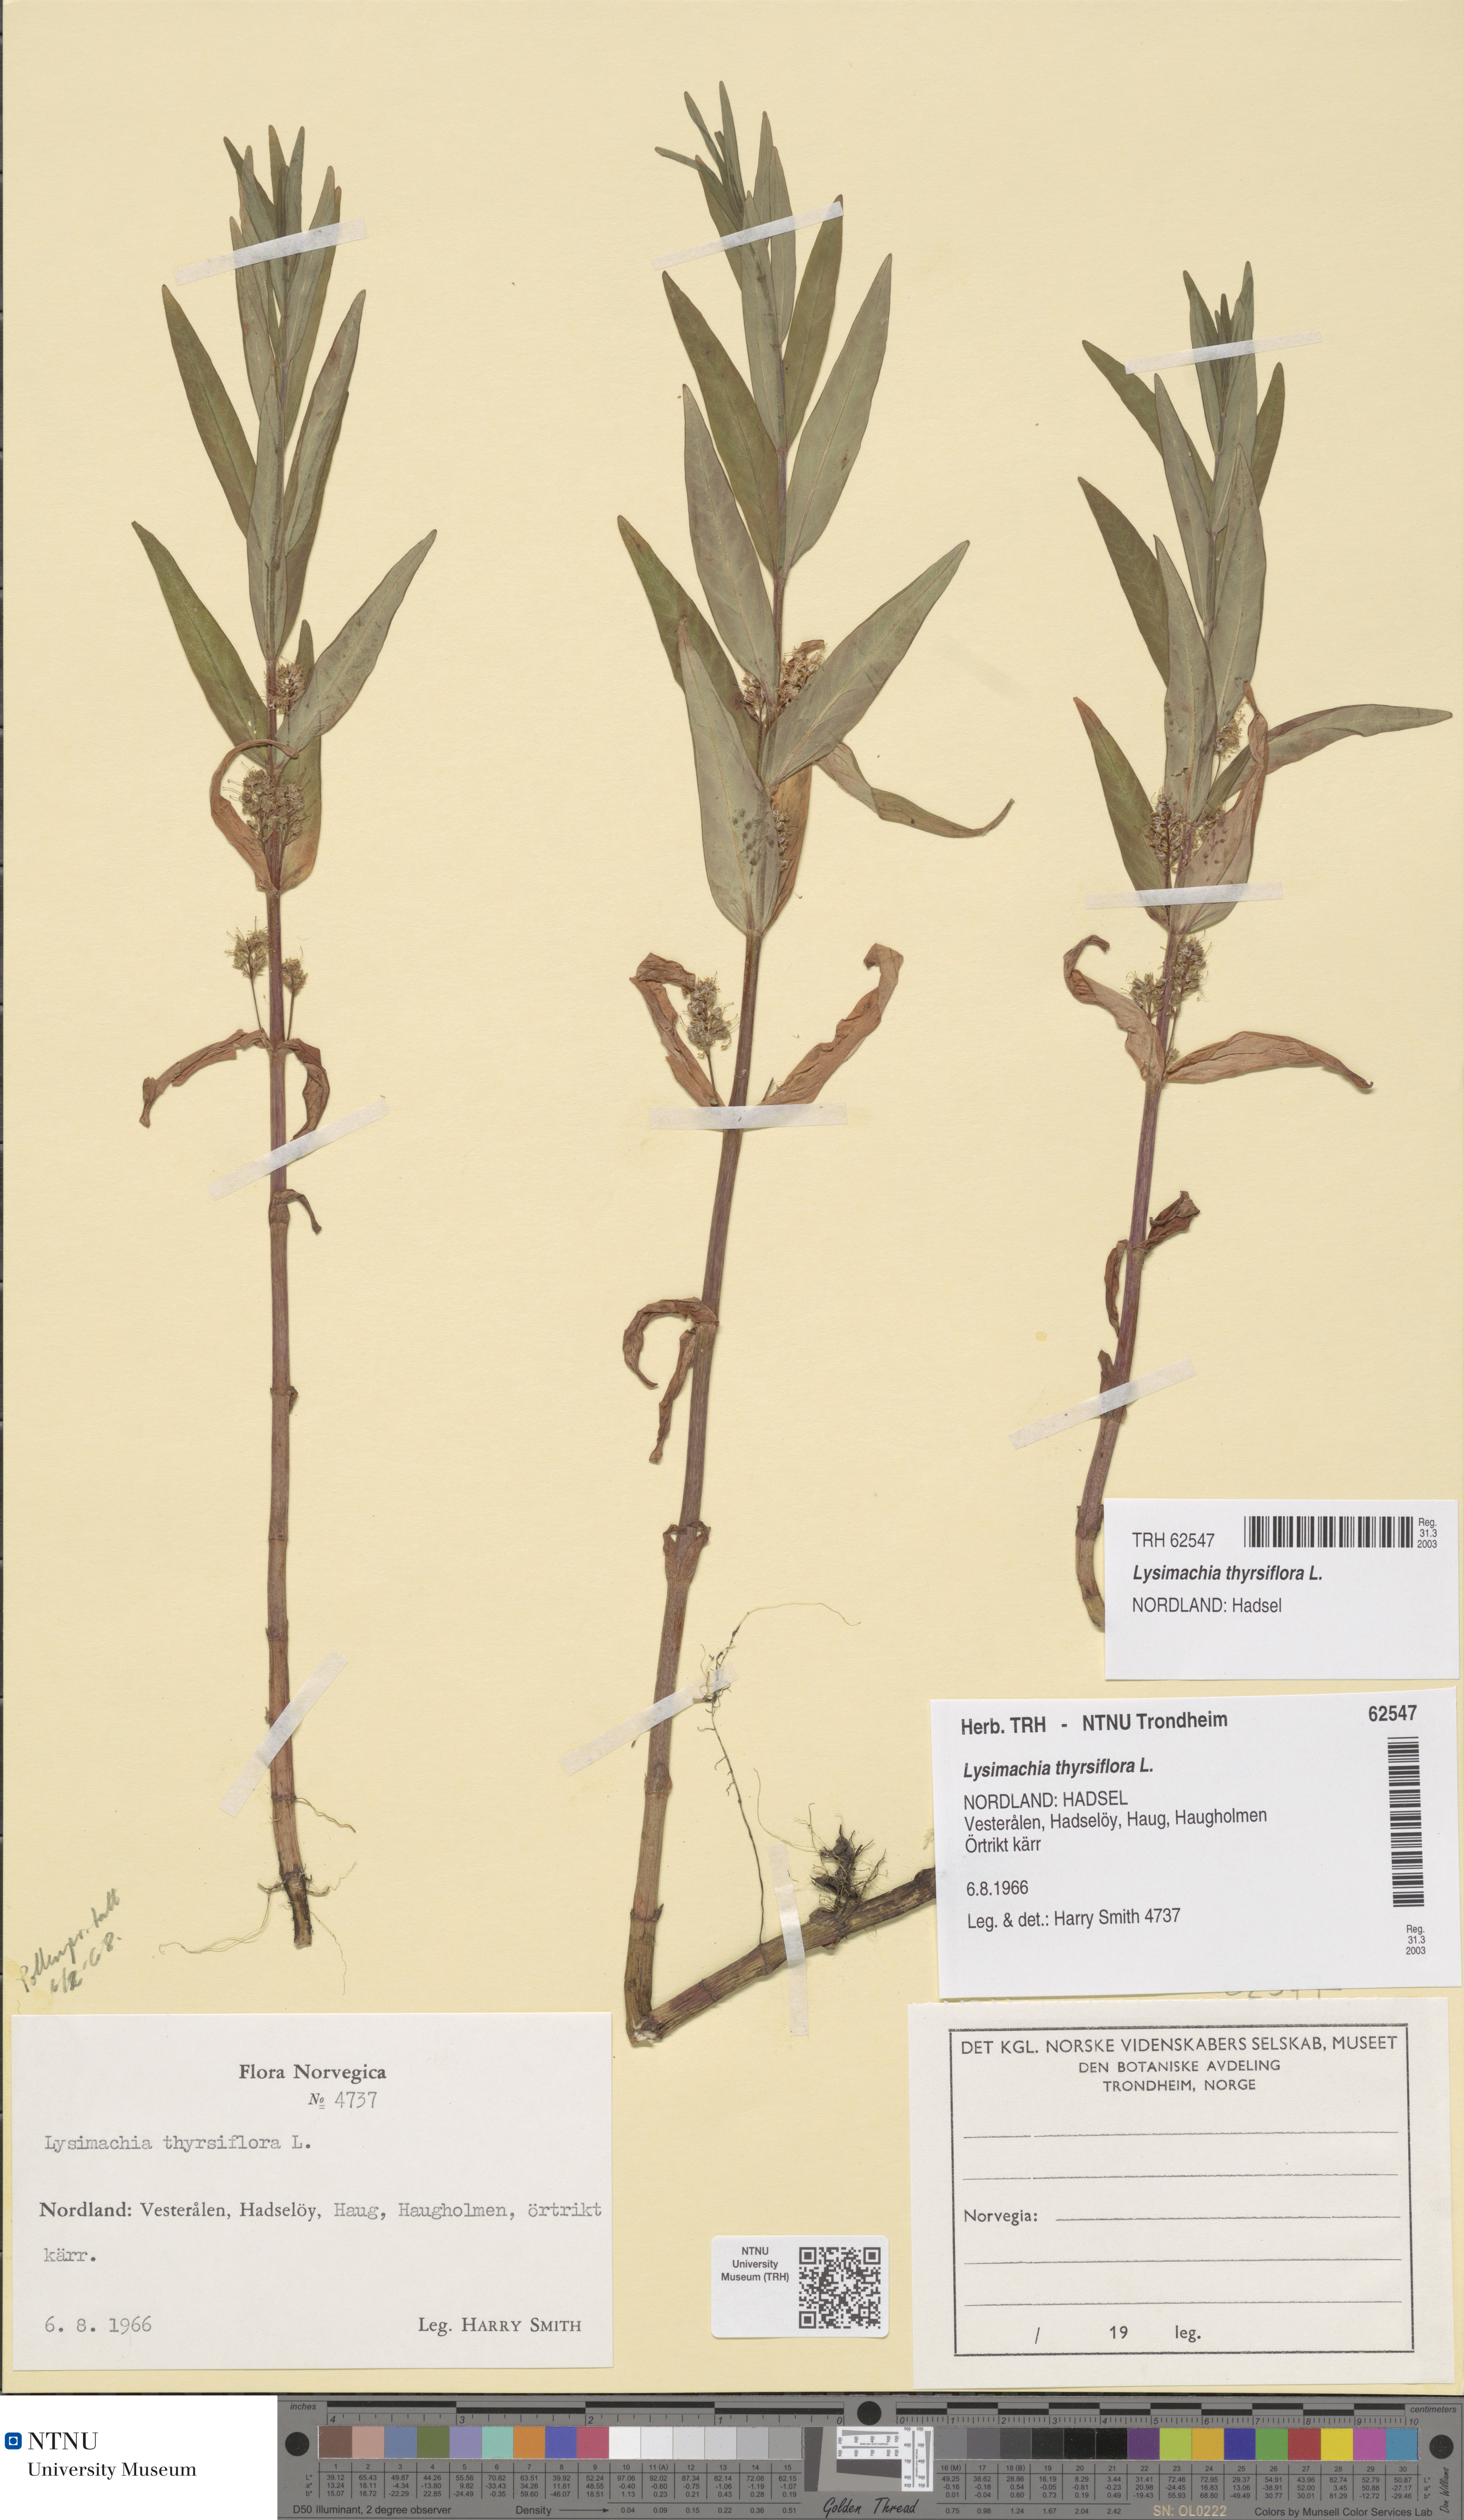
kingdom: Plantae
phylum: Tracheophyta
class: Magnoliopsida
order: Ericales
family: Primulaceae
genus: Lysimachia
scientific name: Lysimachia thyrsiflora
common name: Tufted loosestrife
